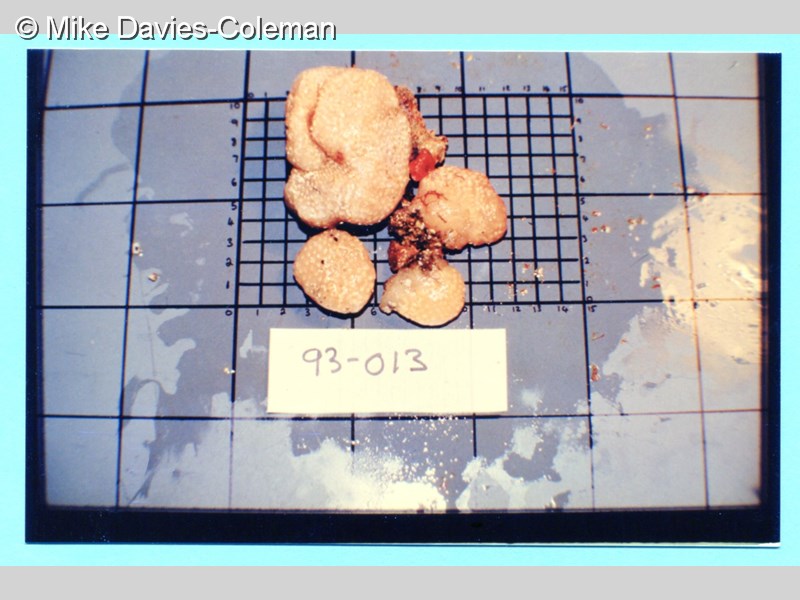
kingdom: Animalia
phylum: Chordata
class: Ascidiacea
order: Aplousobranchia
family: Polycitoridae
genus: Eudistoma
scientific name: Eudistoma
